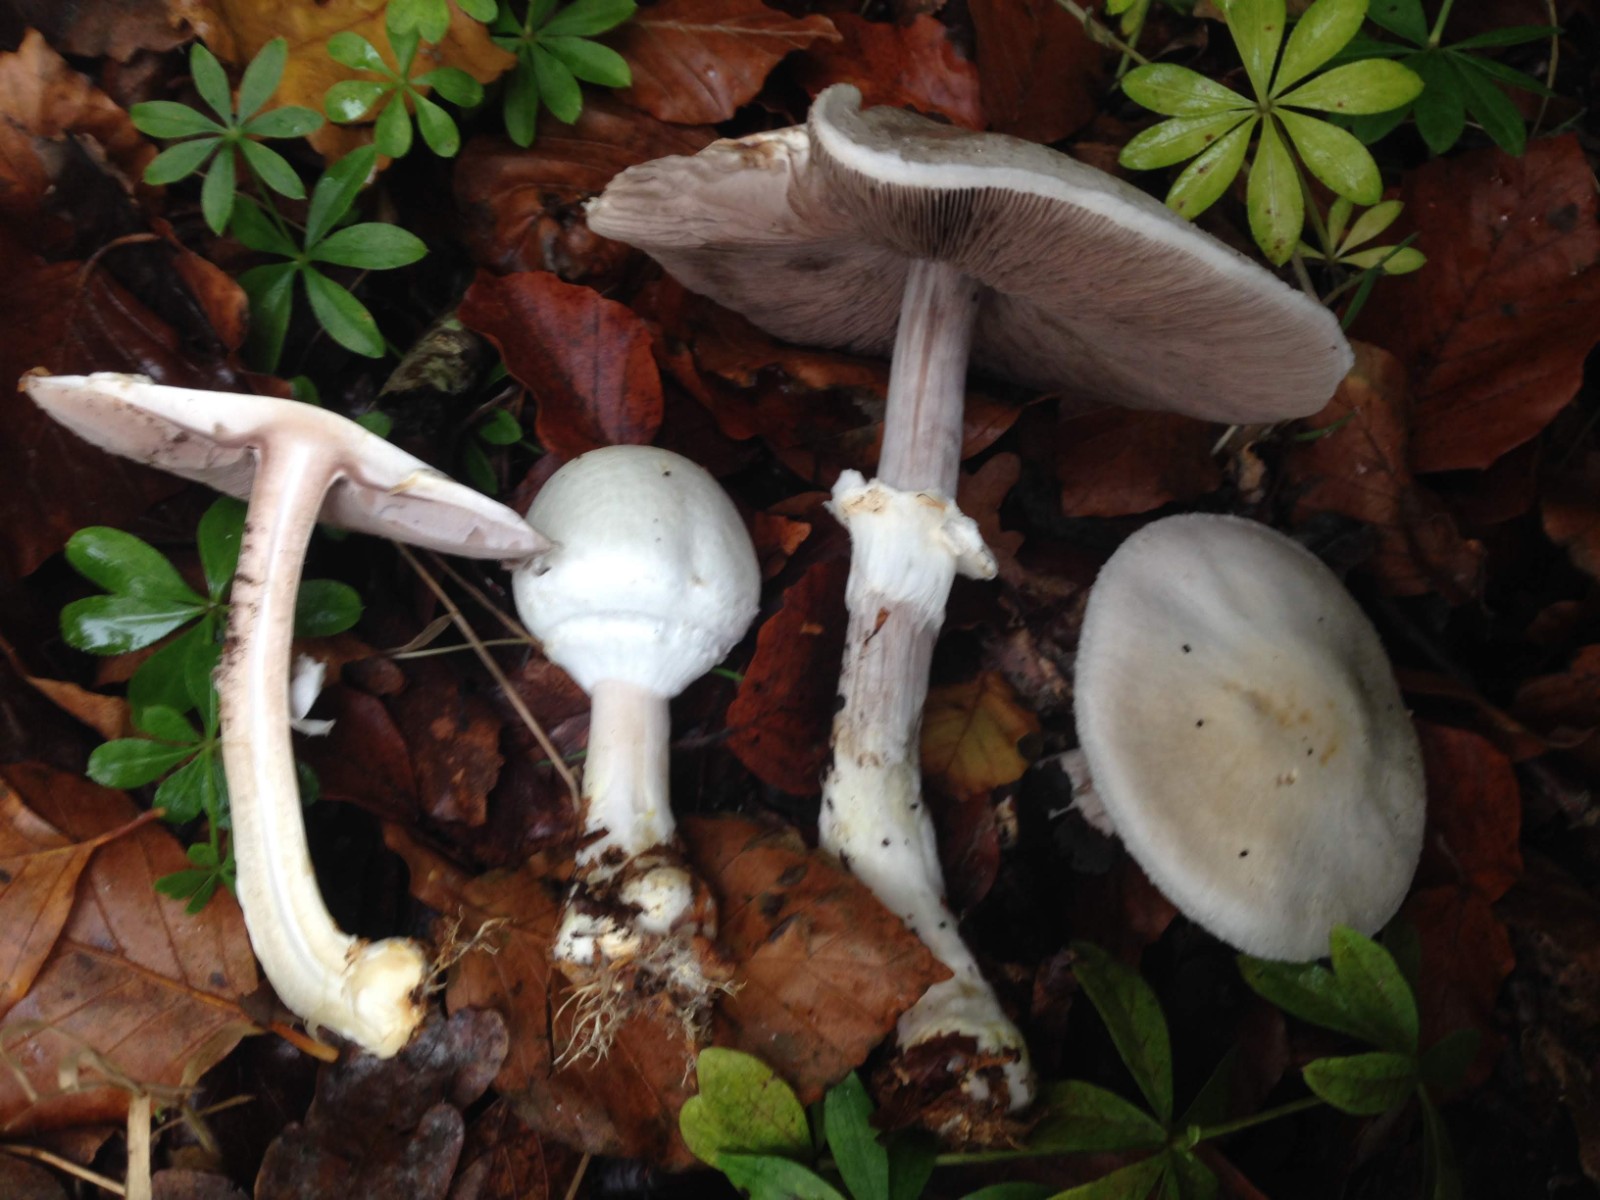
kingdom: Fungi
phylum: Basidiomycota
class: Agaricomycetes
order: Agaricales
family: Agaricaceae
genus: Agaricus
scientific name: Agaricus sylvicola
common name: skiveknoldet champignon
